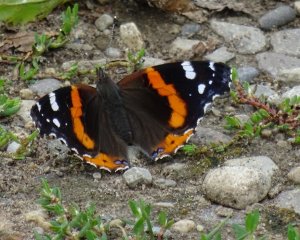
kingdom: Animalia
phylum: Arthropoda
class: Insecta
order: Lepidoptera
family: Nymphalidae
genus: Vanessa
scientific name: Vanessa atalanta
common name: Red Admiral
